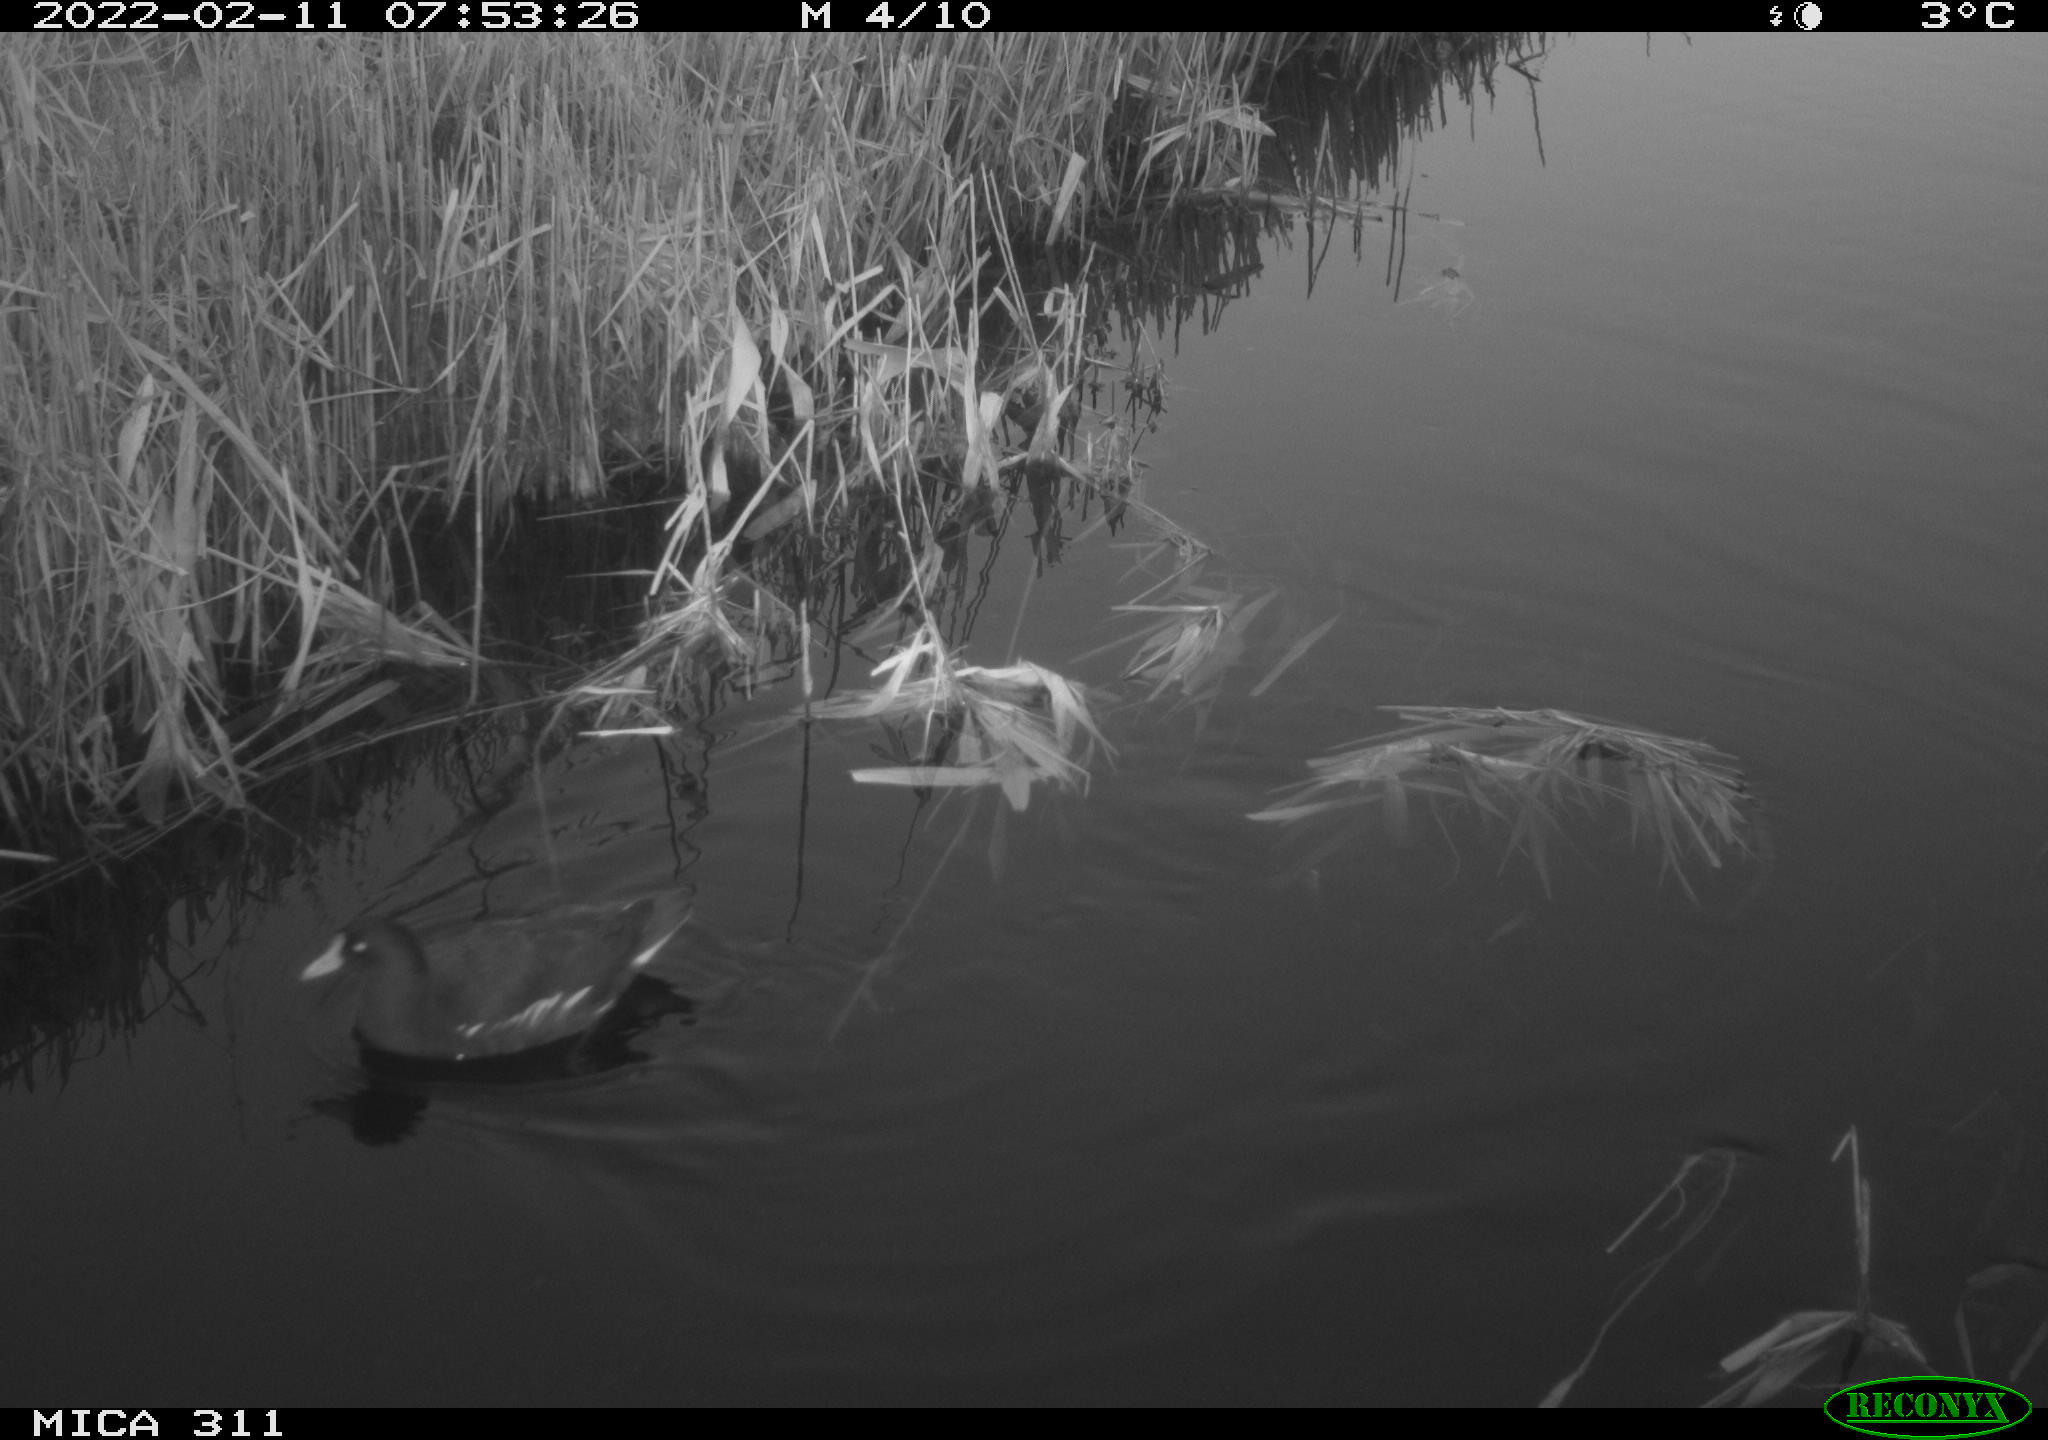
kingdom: Animalia
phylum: Chordata
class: Aves
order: Gruiformes
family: Rallidae
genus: Gallinula
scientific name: Gallinula chloropus
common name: Common moorhen
